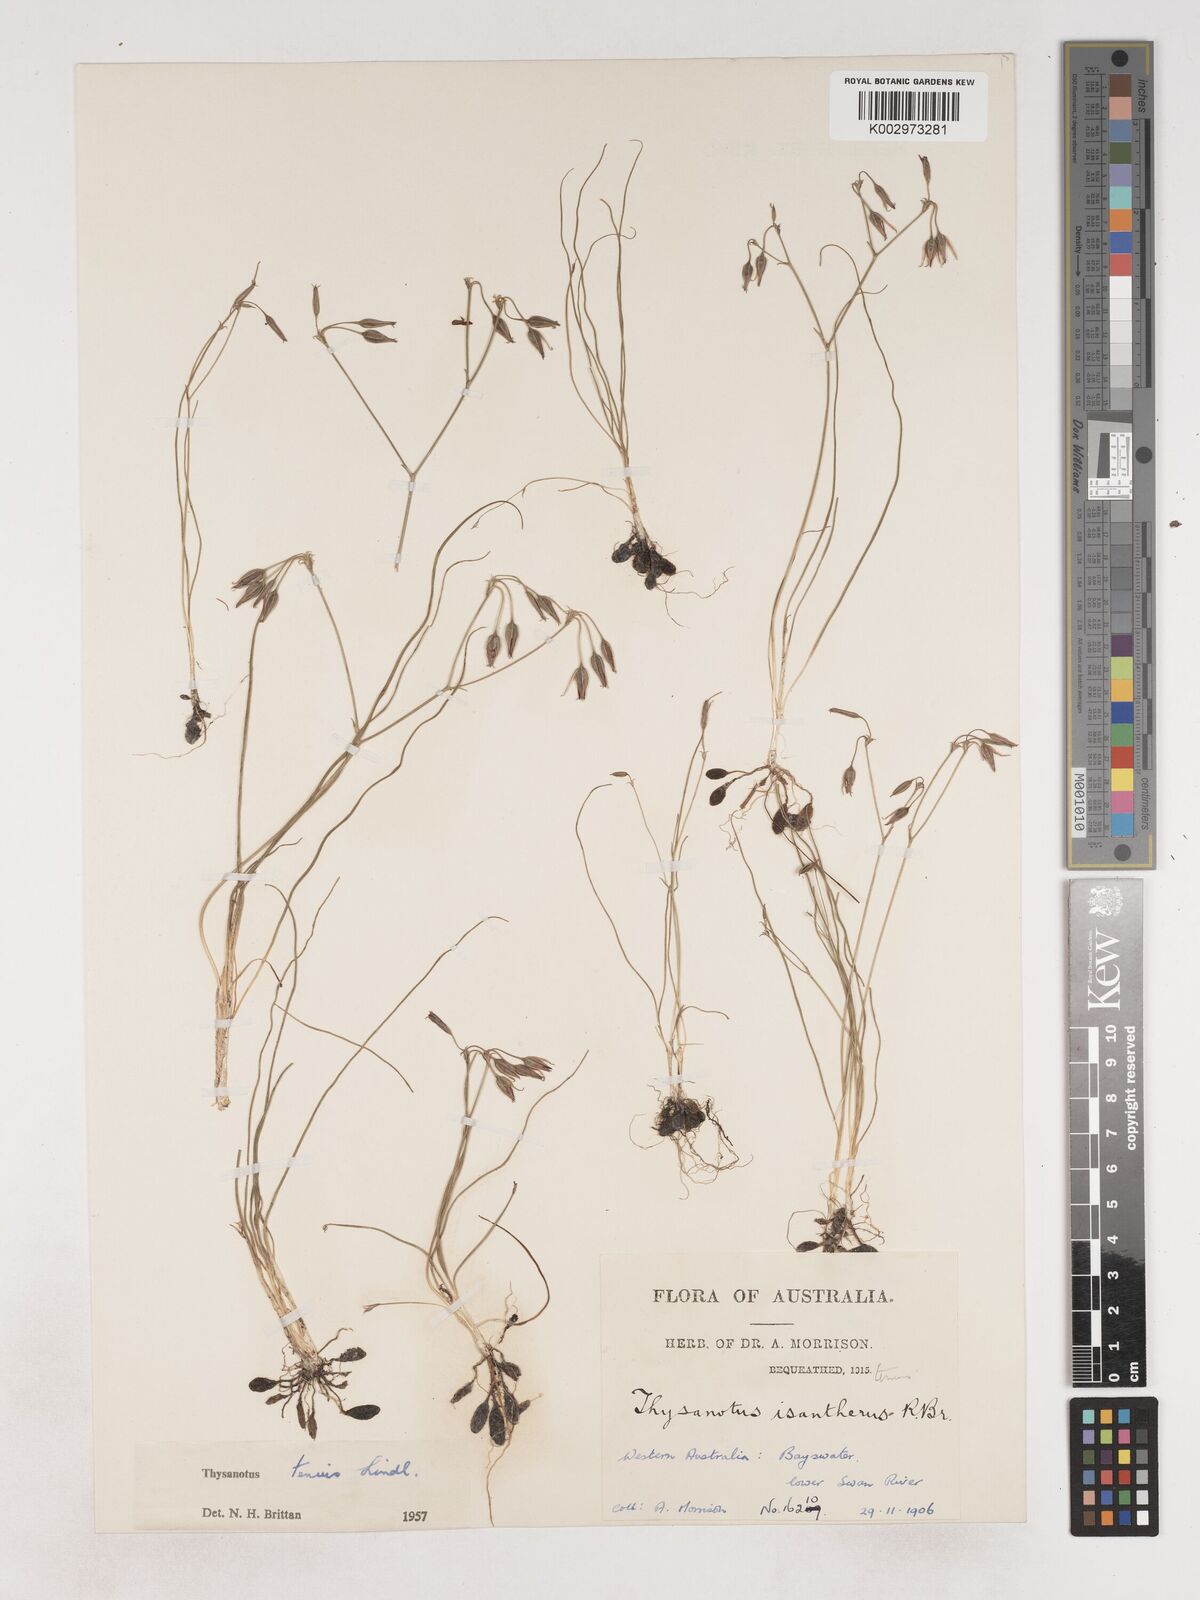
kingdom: Plantae
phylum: Tracheophyta
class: Liliopsida
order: Asparagales
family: Asparagaceae
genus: Thysanotus
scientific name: Thysanotus tenuis
